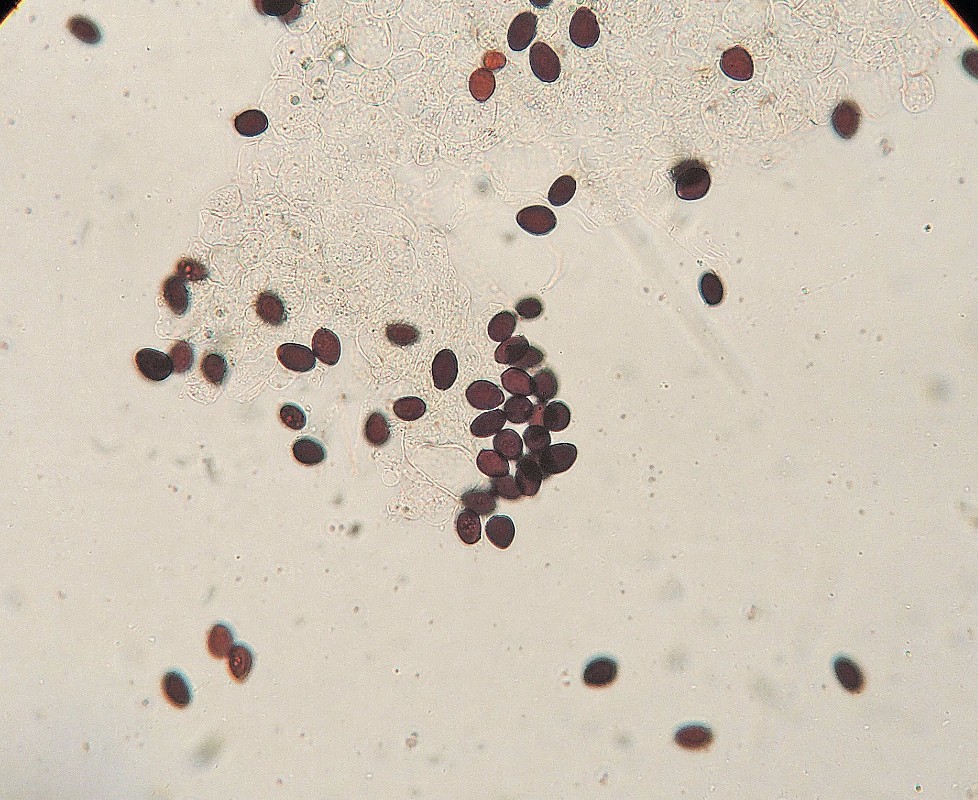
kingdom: Fungi
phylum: Basidiomycota
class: Agaricomycetes
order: Agaricales
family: Psathyrellaceae
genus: Parasola
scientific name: Parasola plicatilis
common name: plæne-hjulhat
